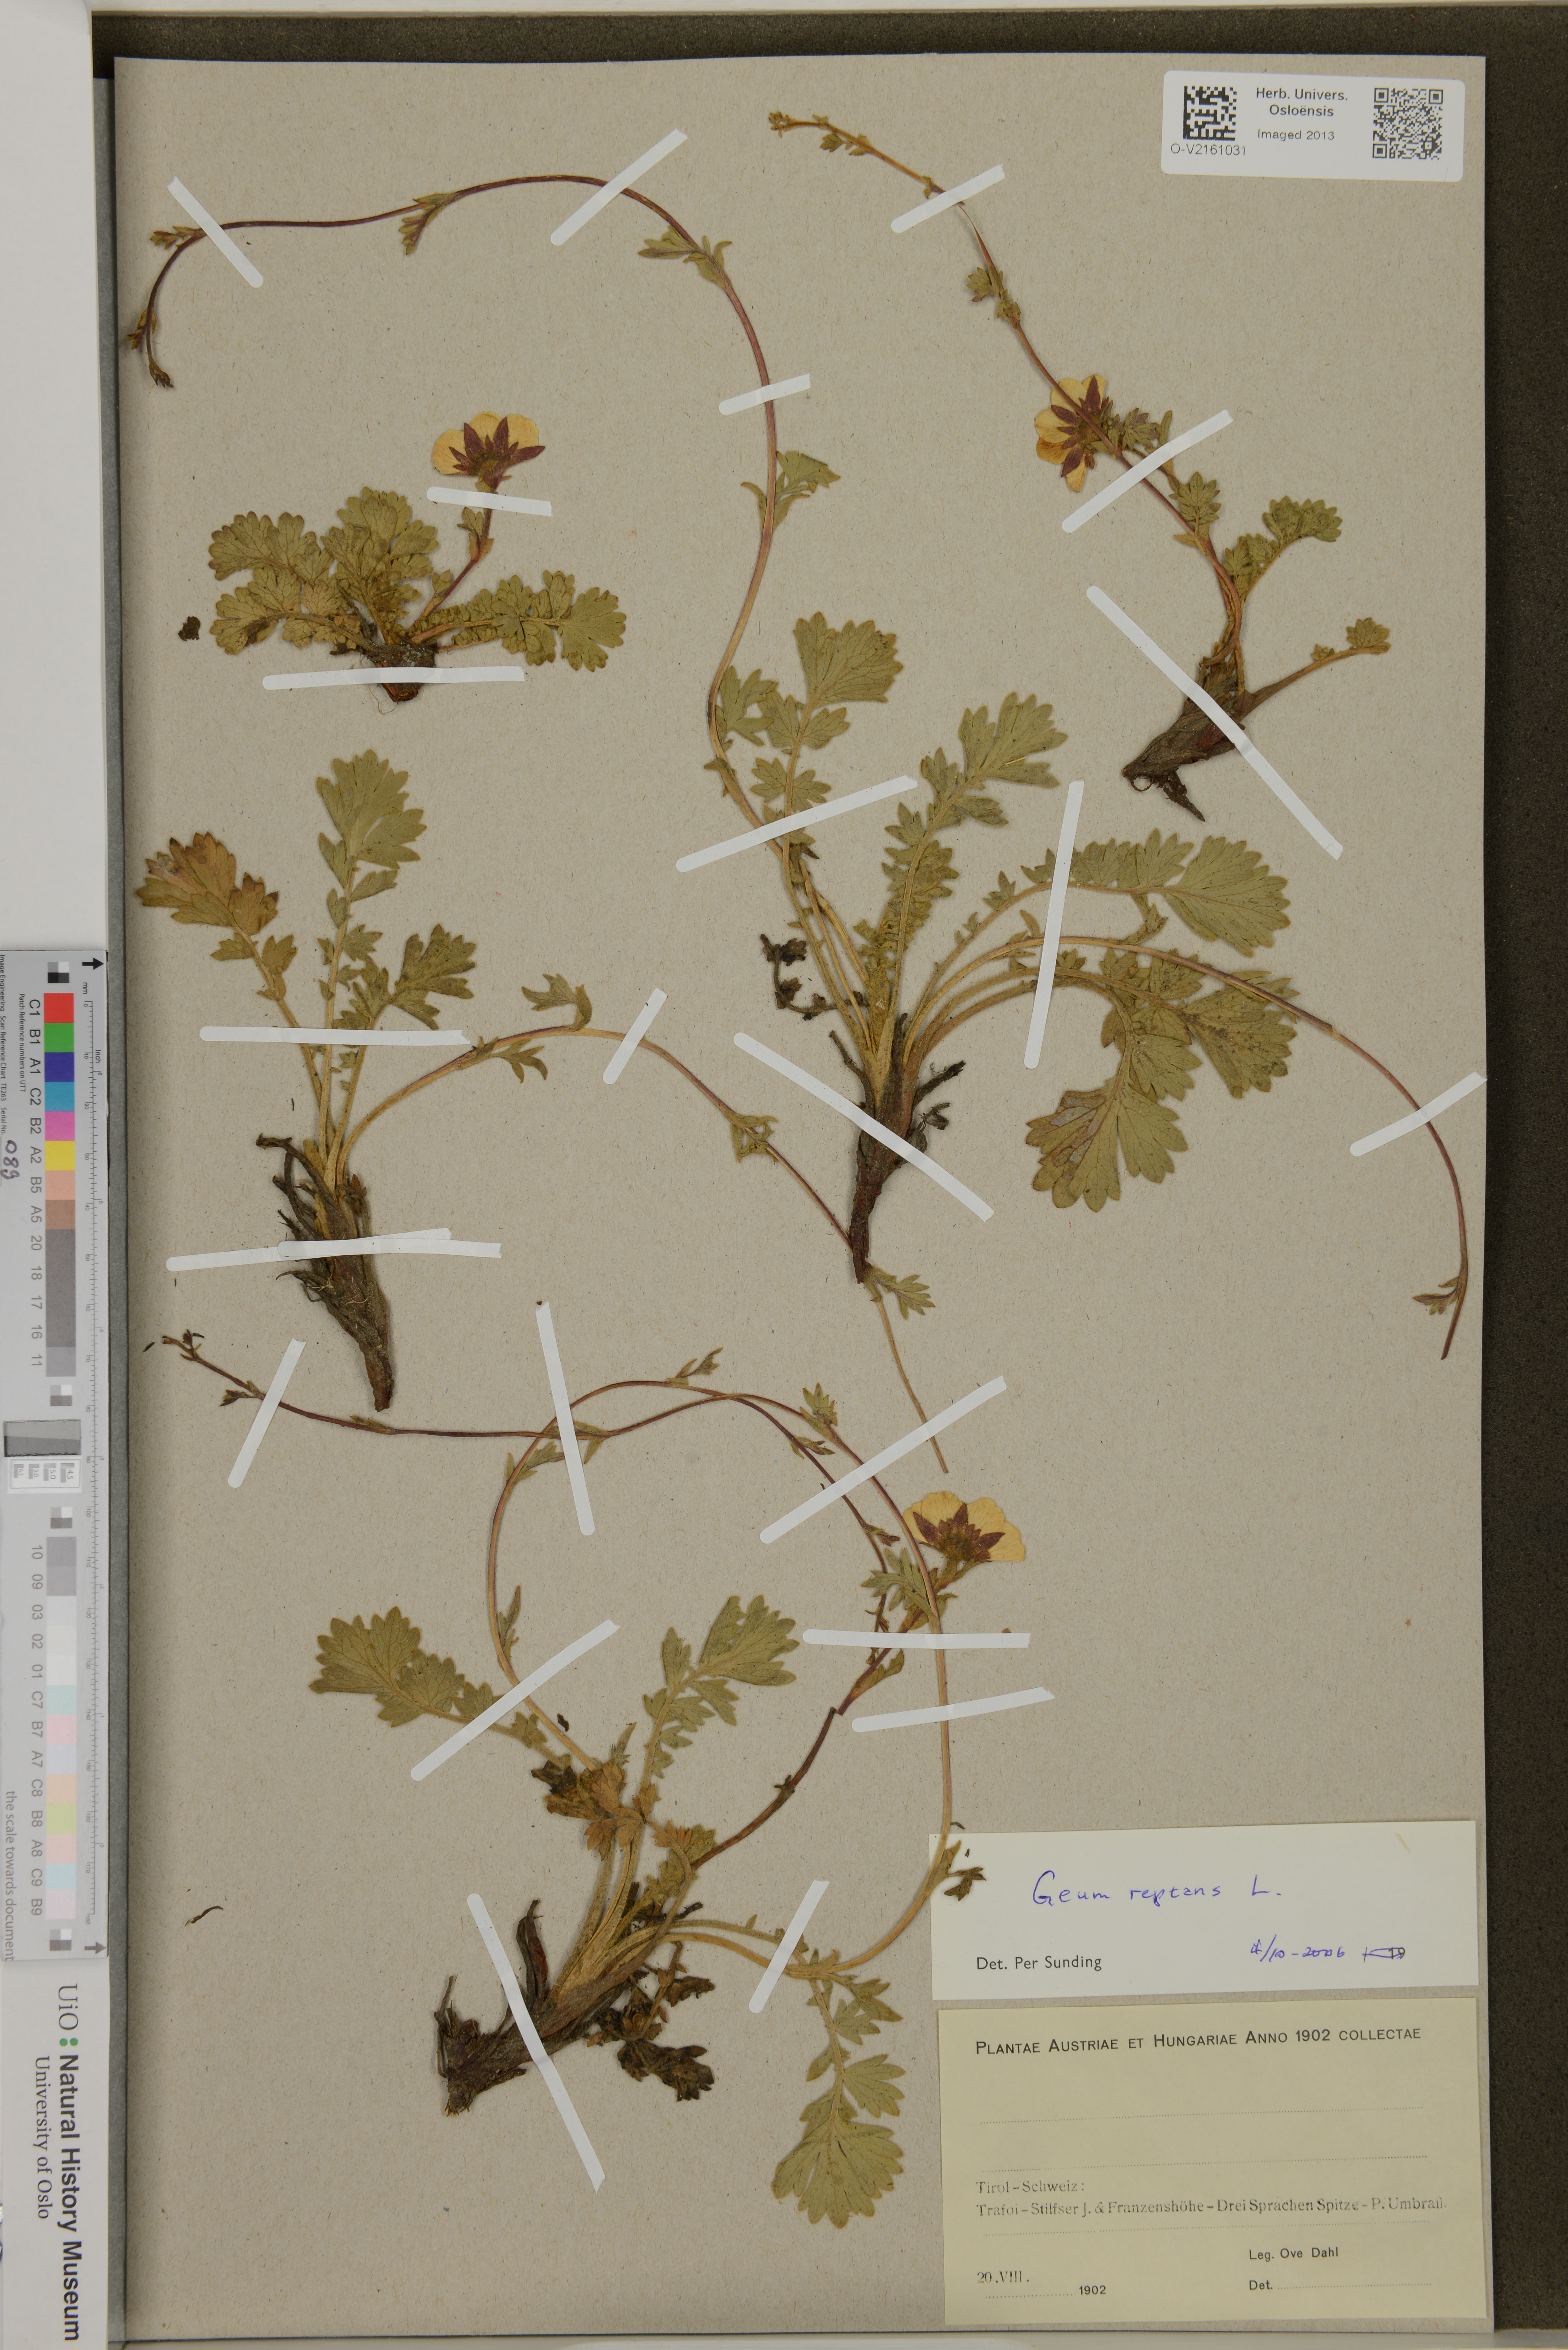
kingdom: Plantae
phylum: Tracheophyta
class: Magnoliopsida
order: Rosales
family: Rosaceae
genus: Geum
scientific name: Geum reptans
